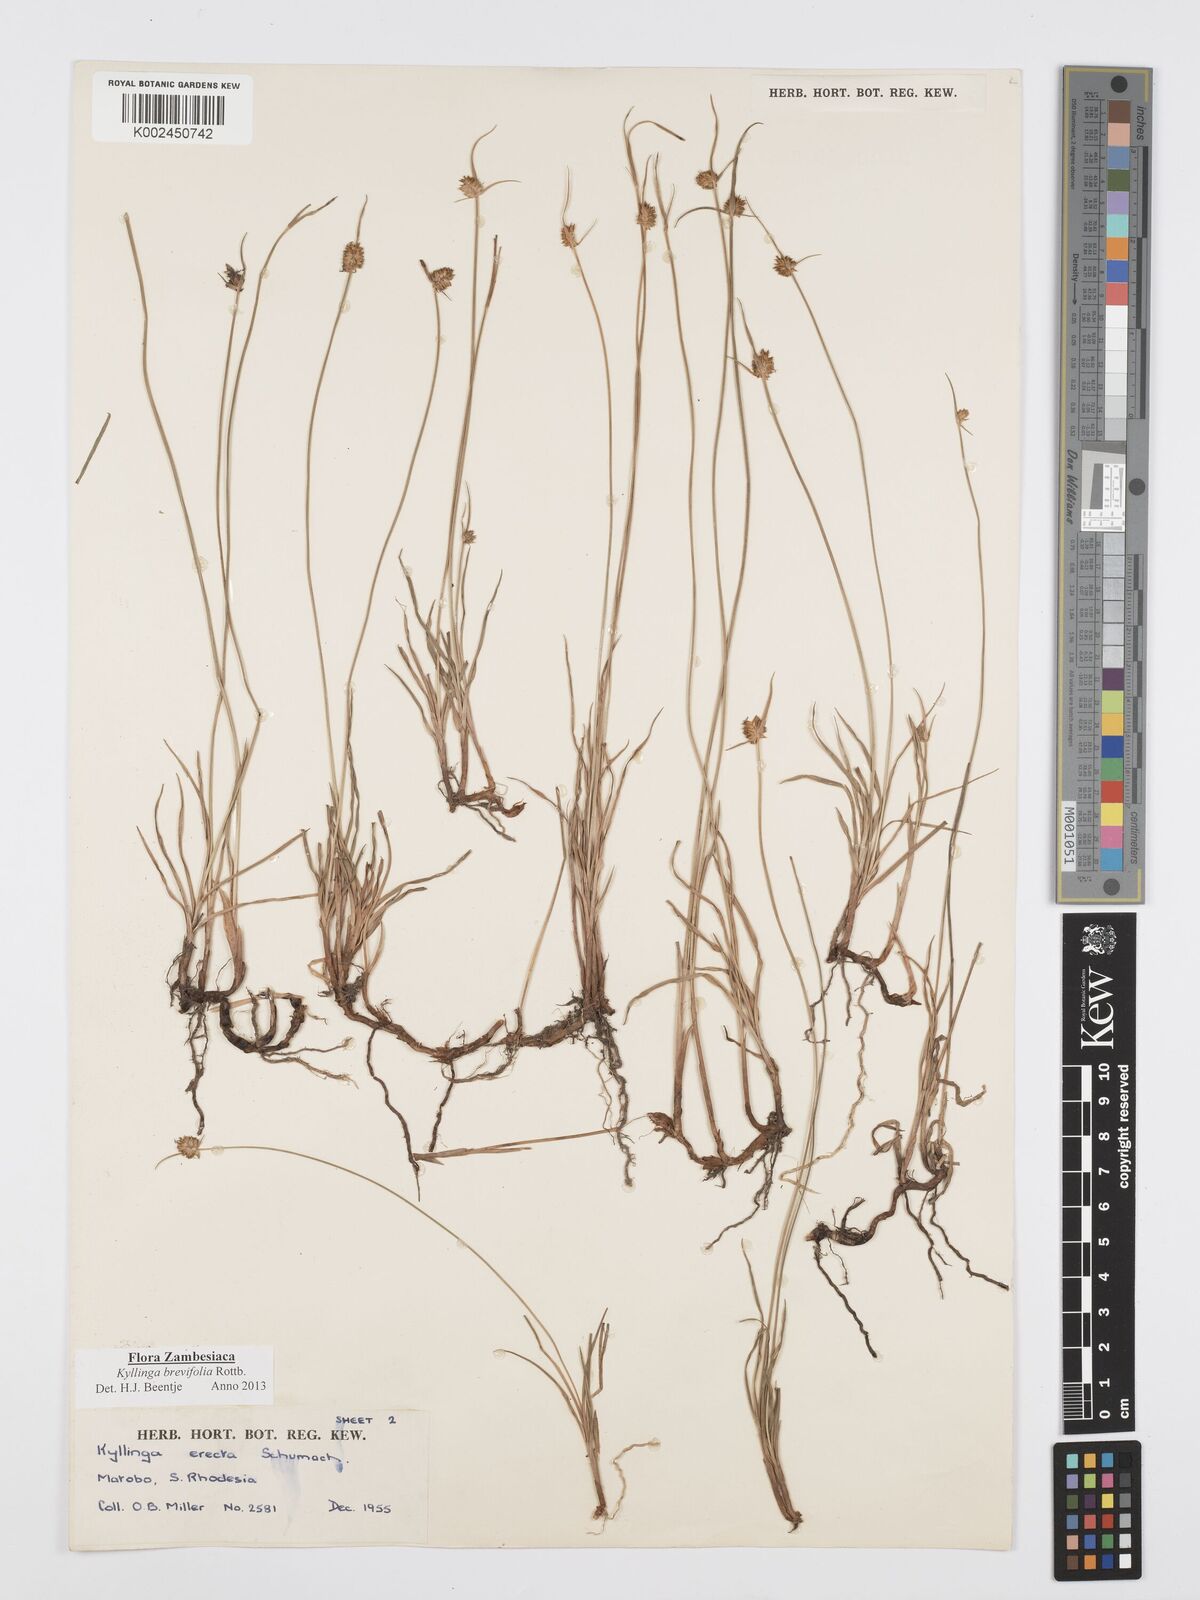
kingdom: Plantae
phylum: Tracheophyta
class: Liliopsida
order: Poales
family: Cyperaceae
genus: Cyperus
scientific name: Cyperus brevifolius
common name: Globe kyllinga
